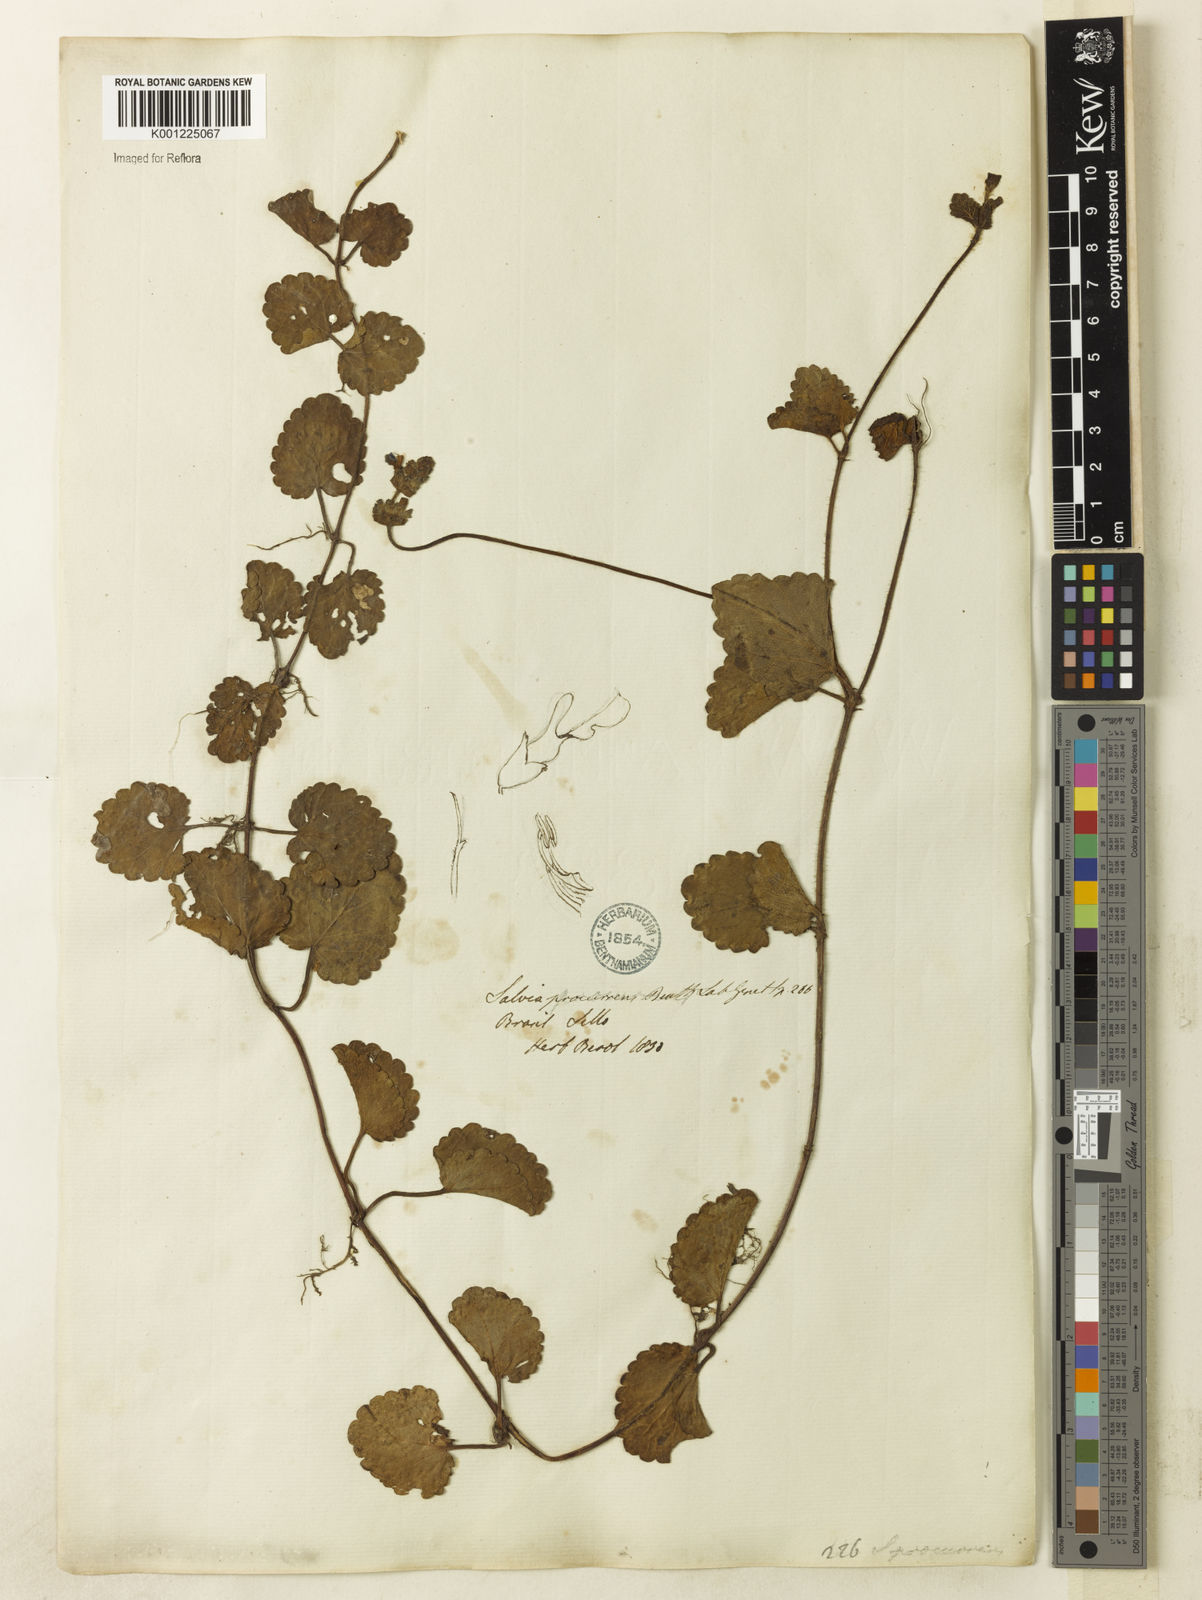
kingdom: Plantae
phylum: Tracheophyta
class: Magnoliopsida
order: Lamiales
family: Lamiaceae
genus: Salvia
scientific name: Salvia procurrens
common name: Blue creeper
